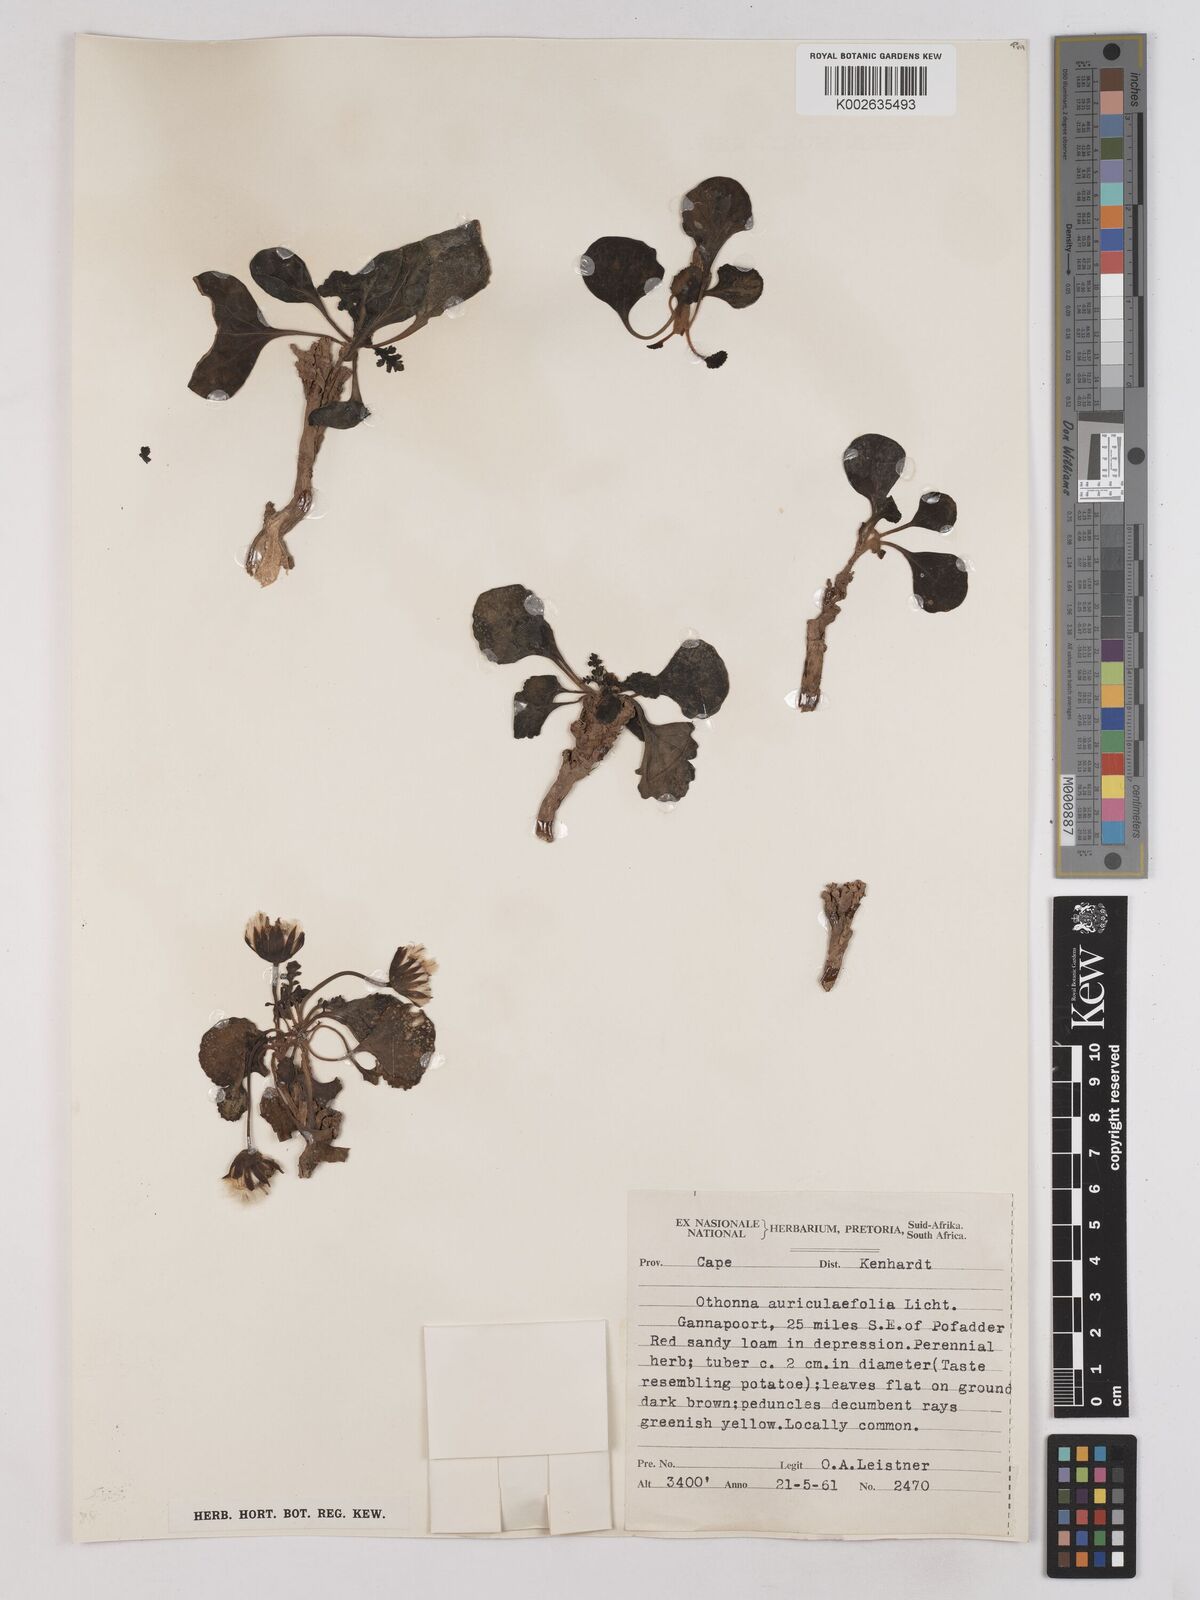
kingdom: Plantae
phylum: Tracheophyta
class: Magnoliopsida
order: Asterales
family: Asteraceae
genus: Othonna
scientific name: Othonna auriculifolia
